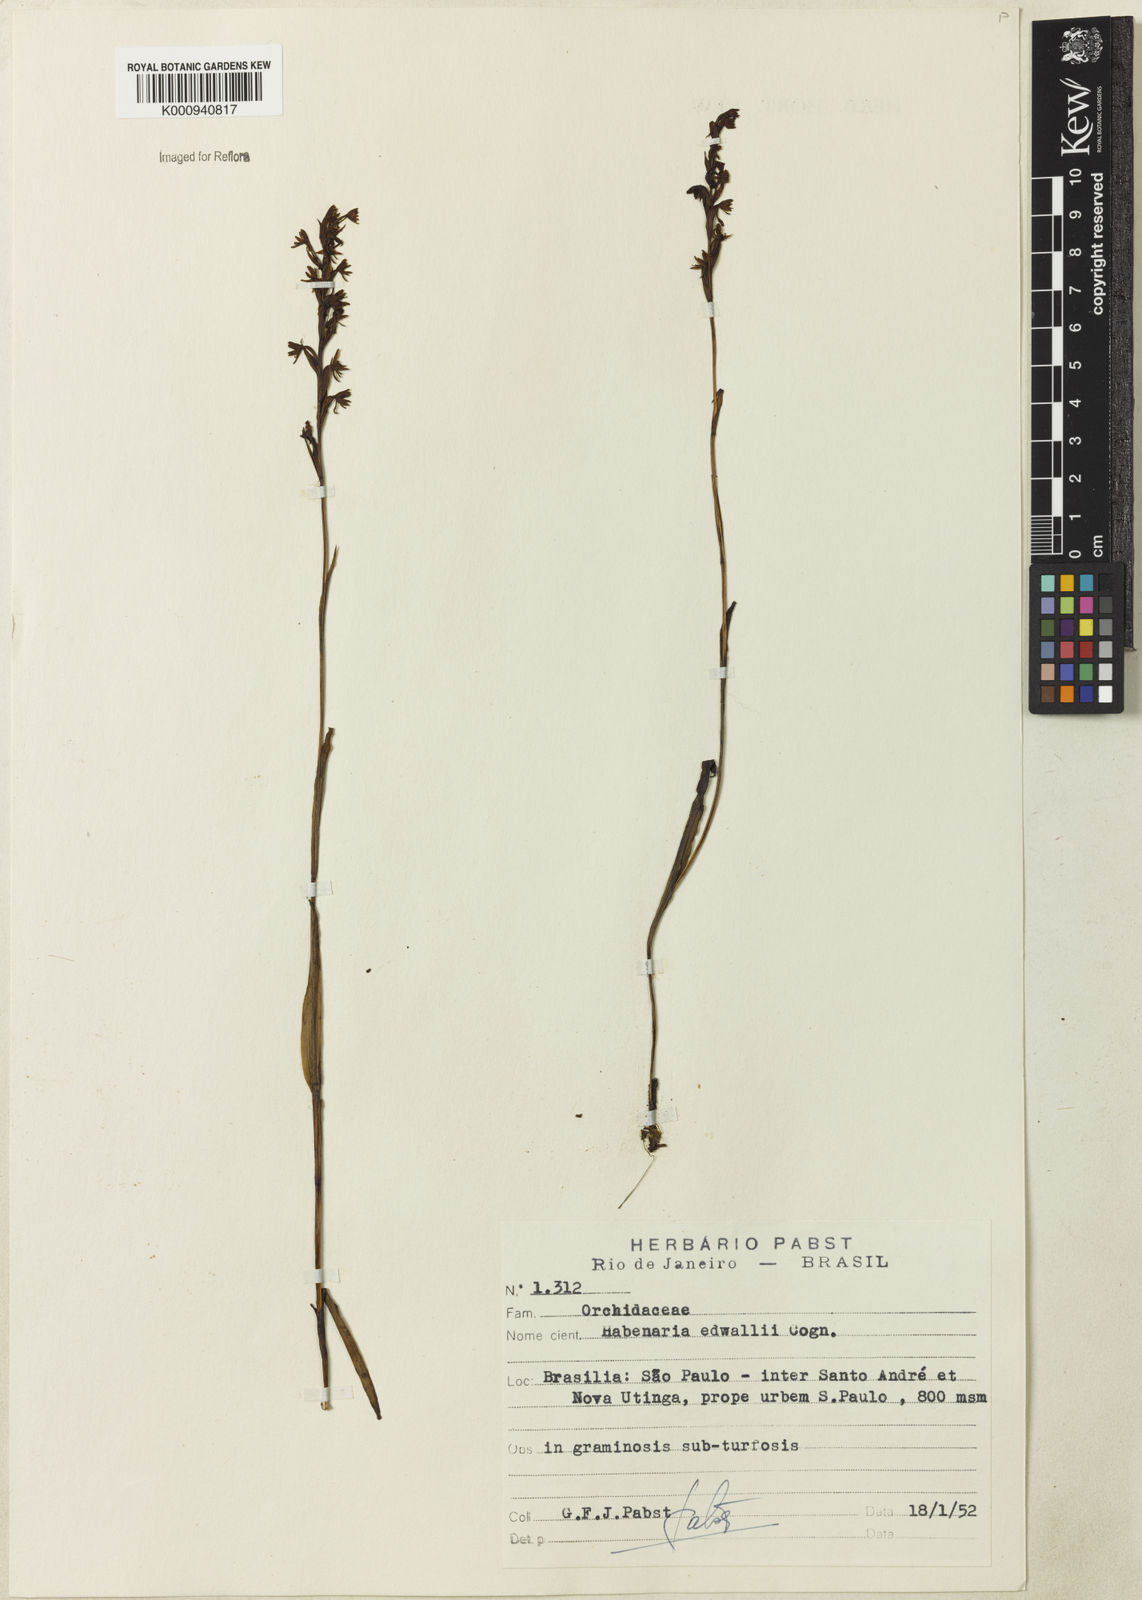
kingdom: Plantae
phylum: Tracheophyta
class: Liliopsida
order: Asparagales
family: Orchidaceae
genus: Habenaria
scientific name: Habenaria edwallii
